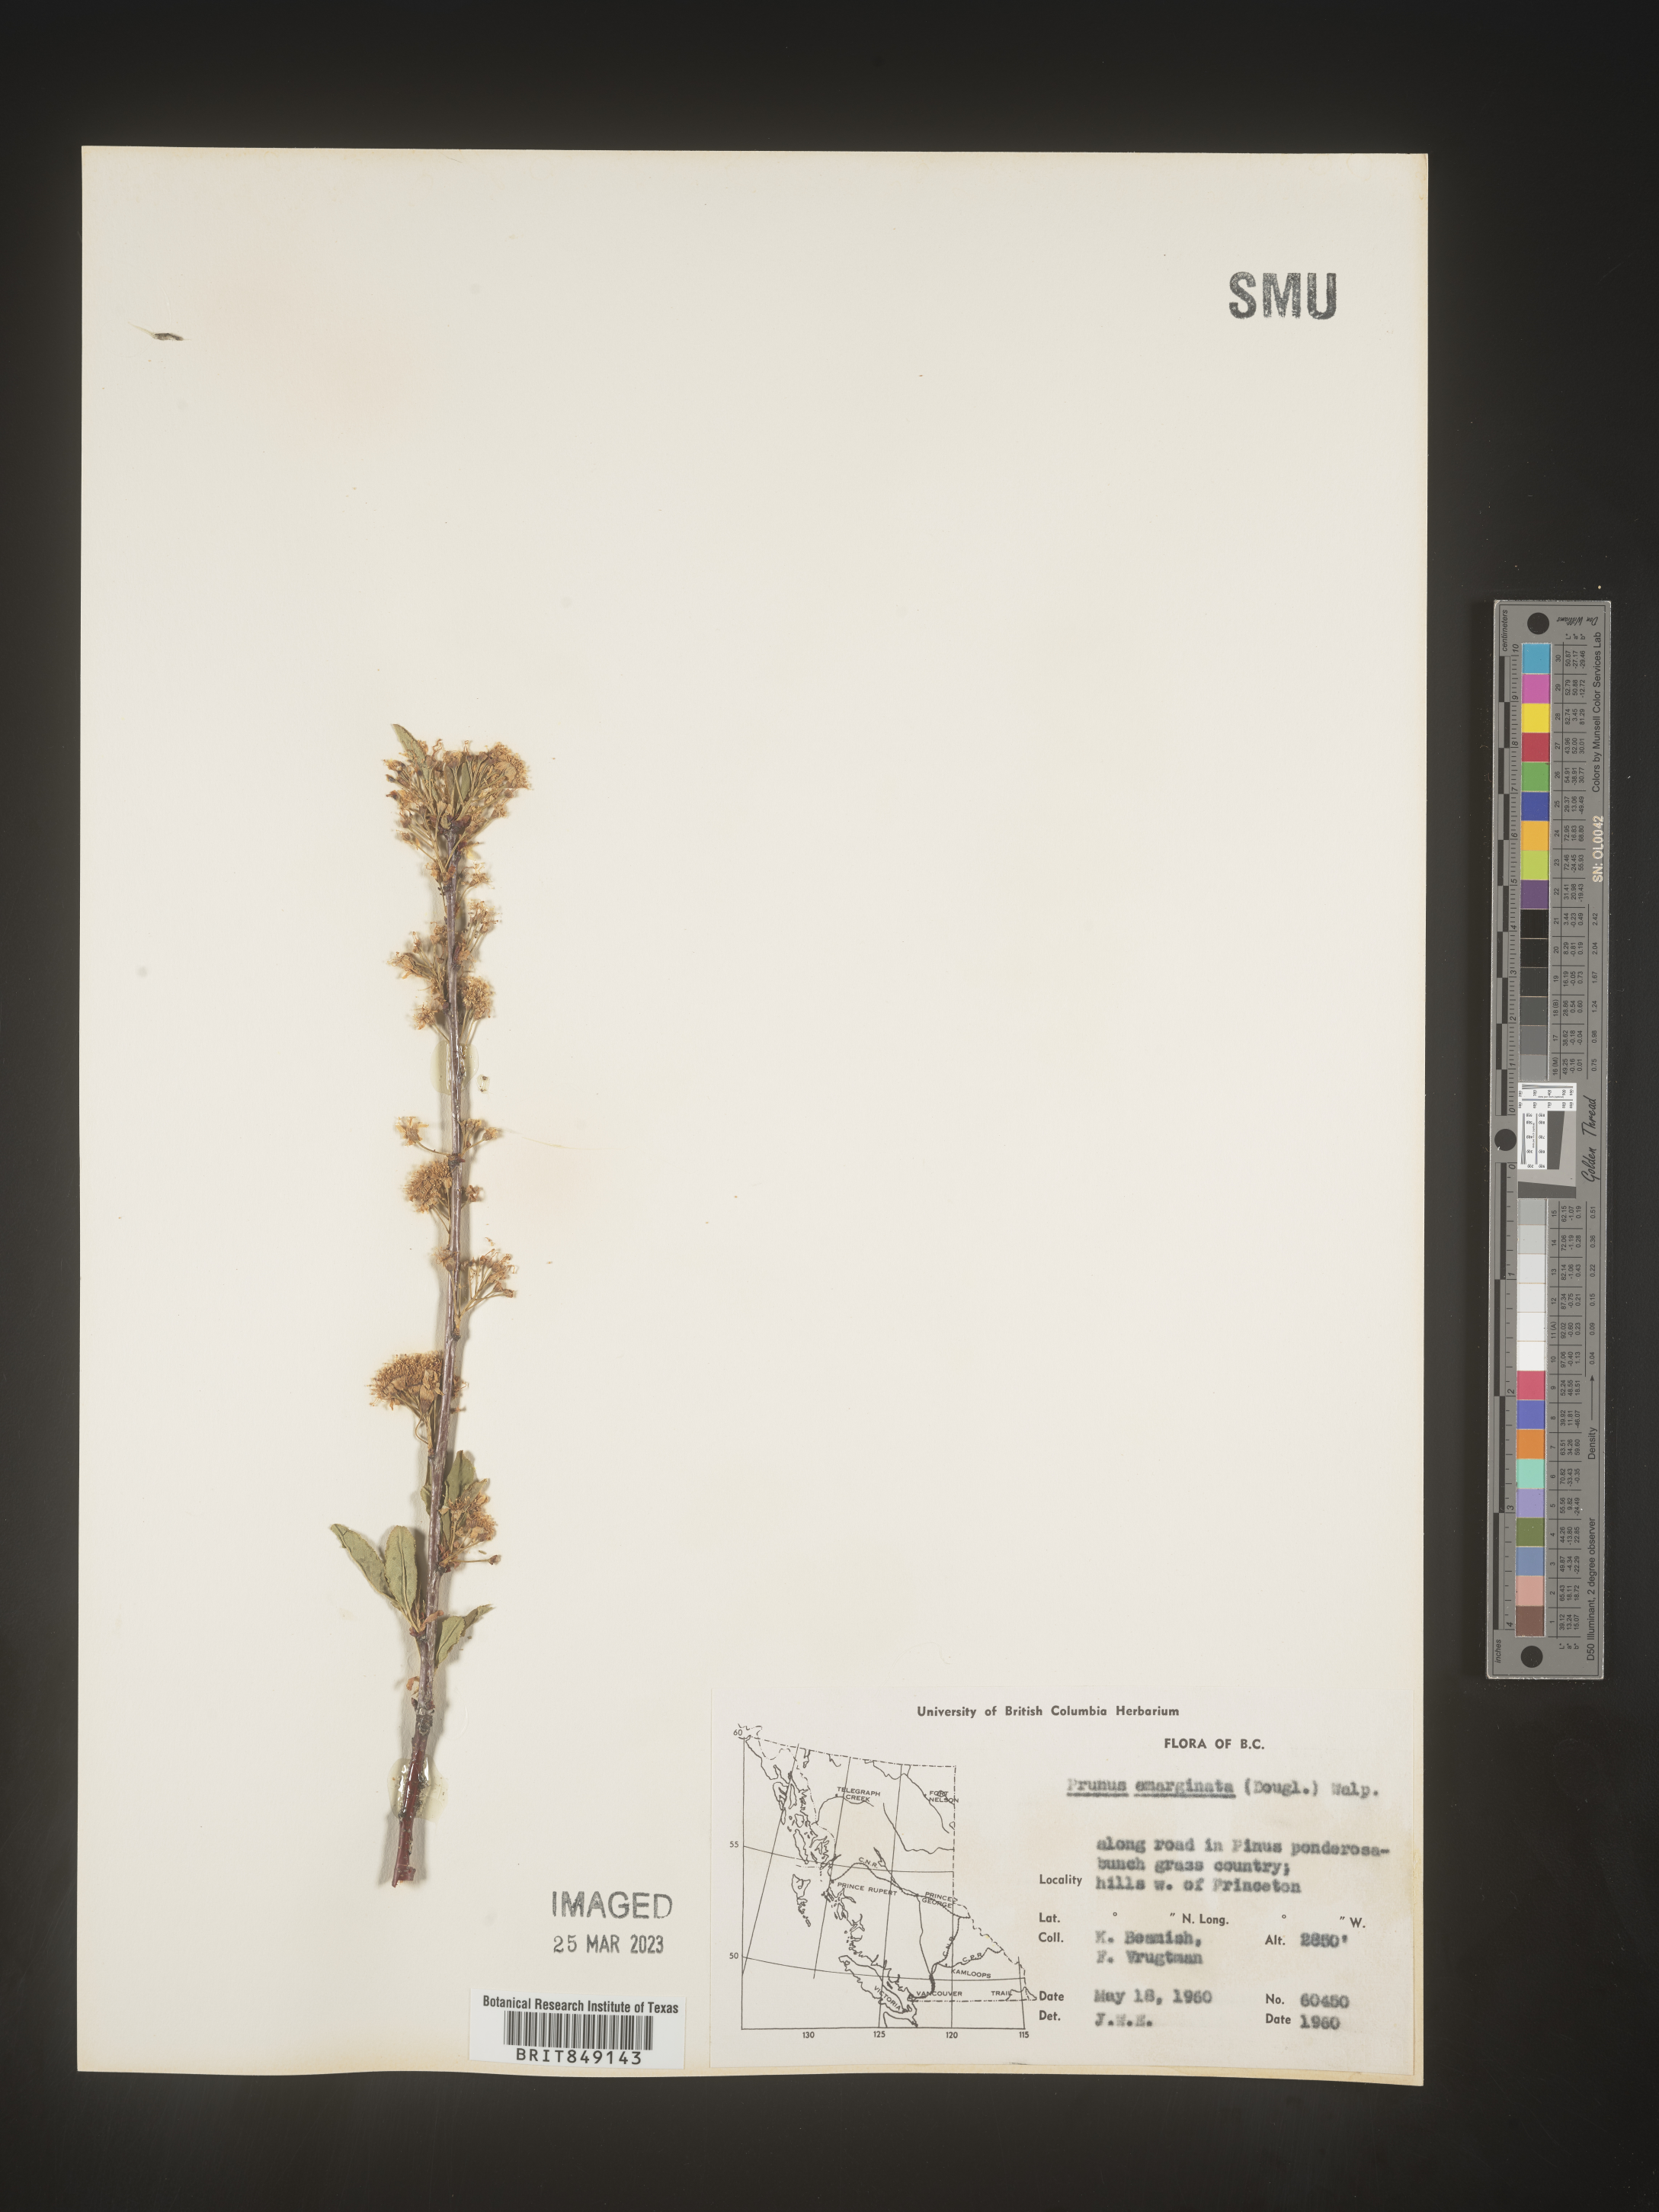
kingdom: Plantae
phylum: Tracheophyta
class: Magnoliopsida
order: Rosales
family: Rosaceae
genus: Prunus
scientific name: Prunus emarginata
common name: Bitter cherry
